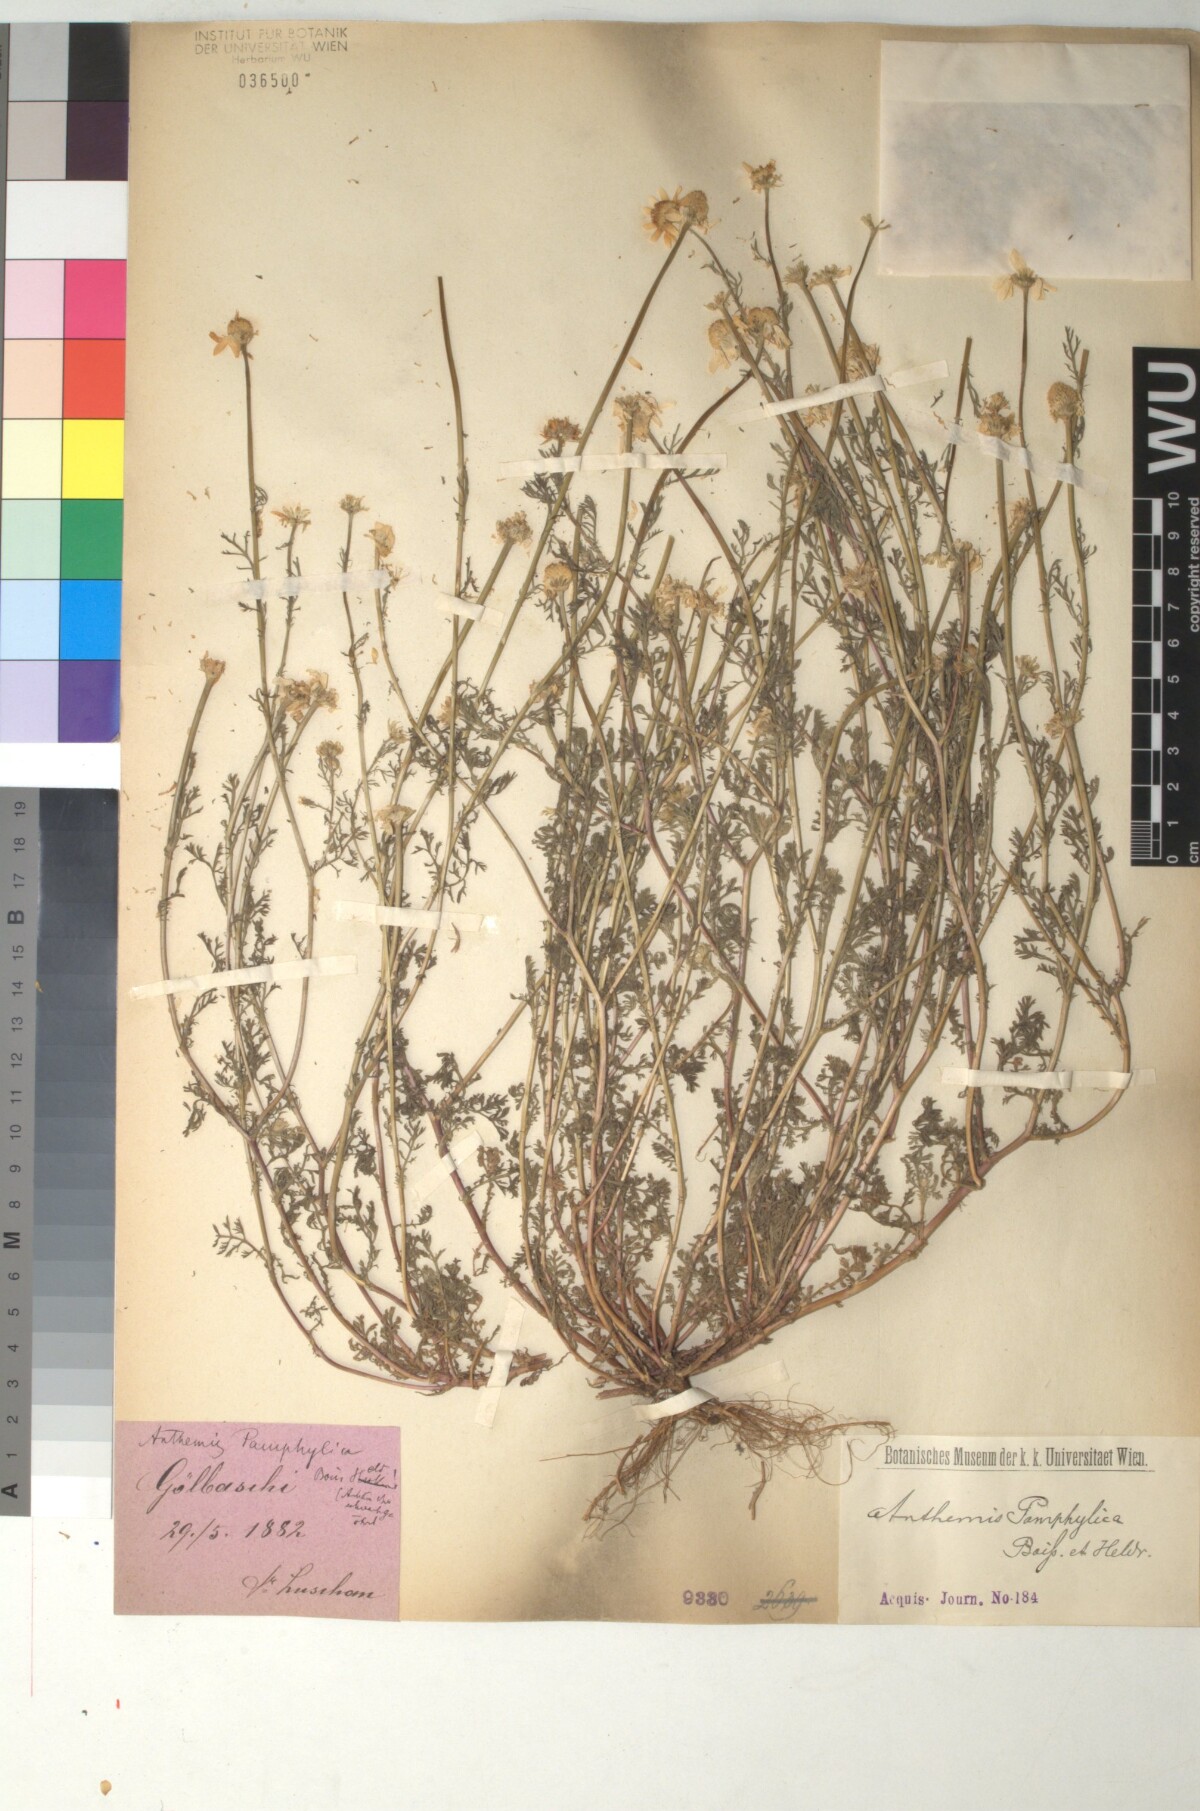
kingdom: Plantae
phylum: Tracheophyta
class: Magnoliopsida
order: Asterales
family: Asteraceae
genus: Anthemis
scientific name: Anthemis pseudocotula
